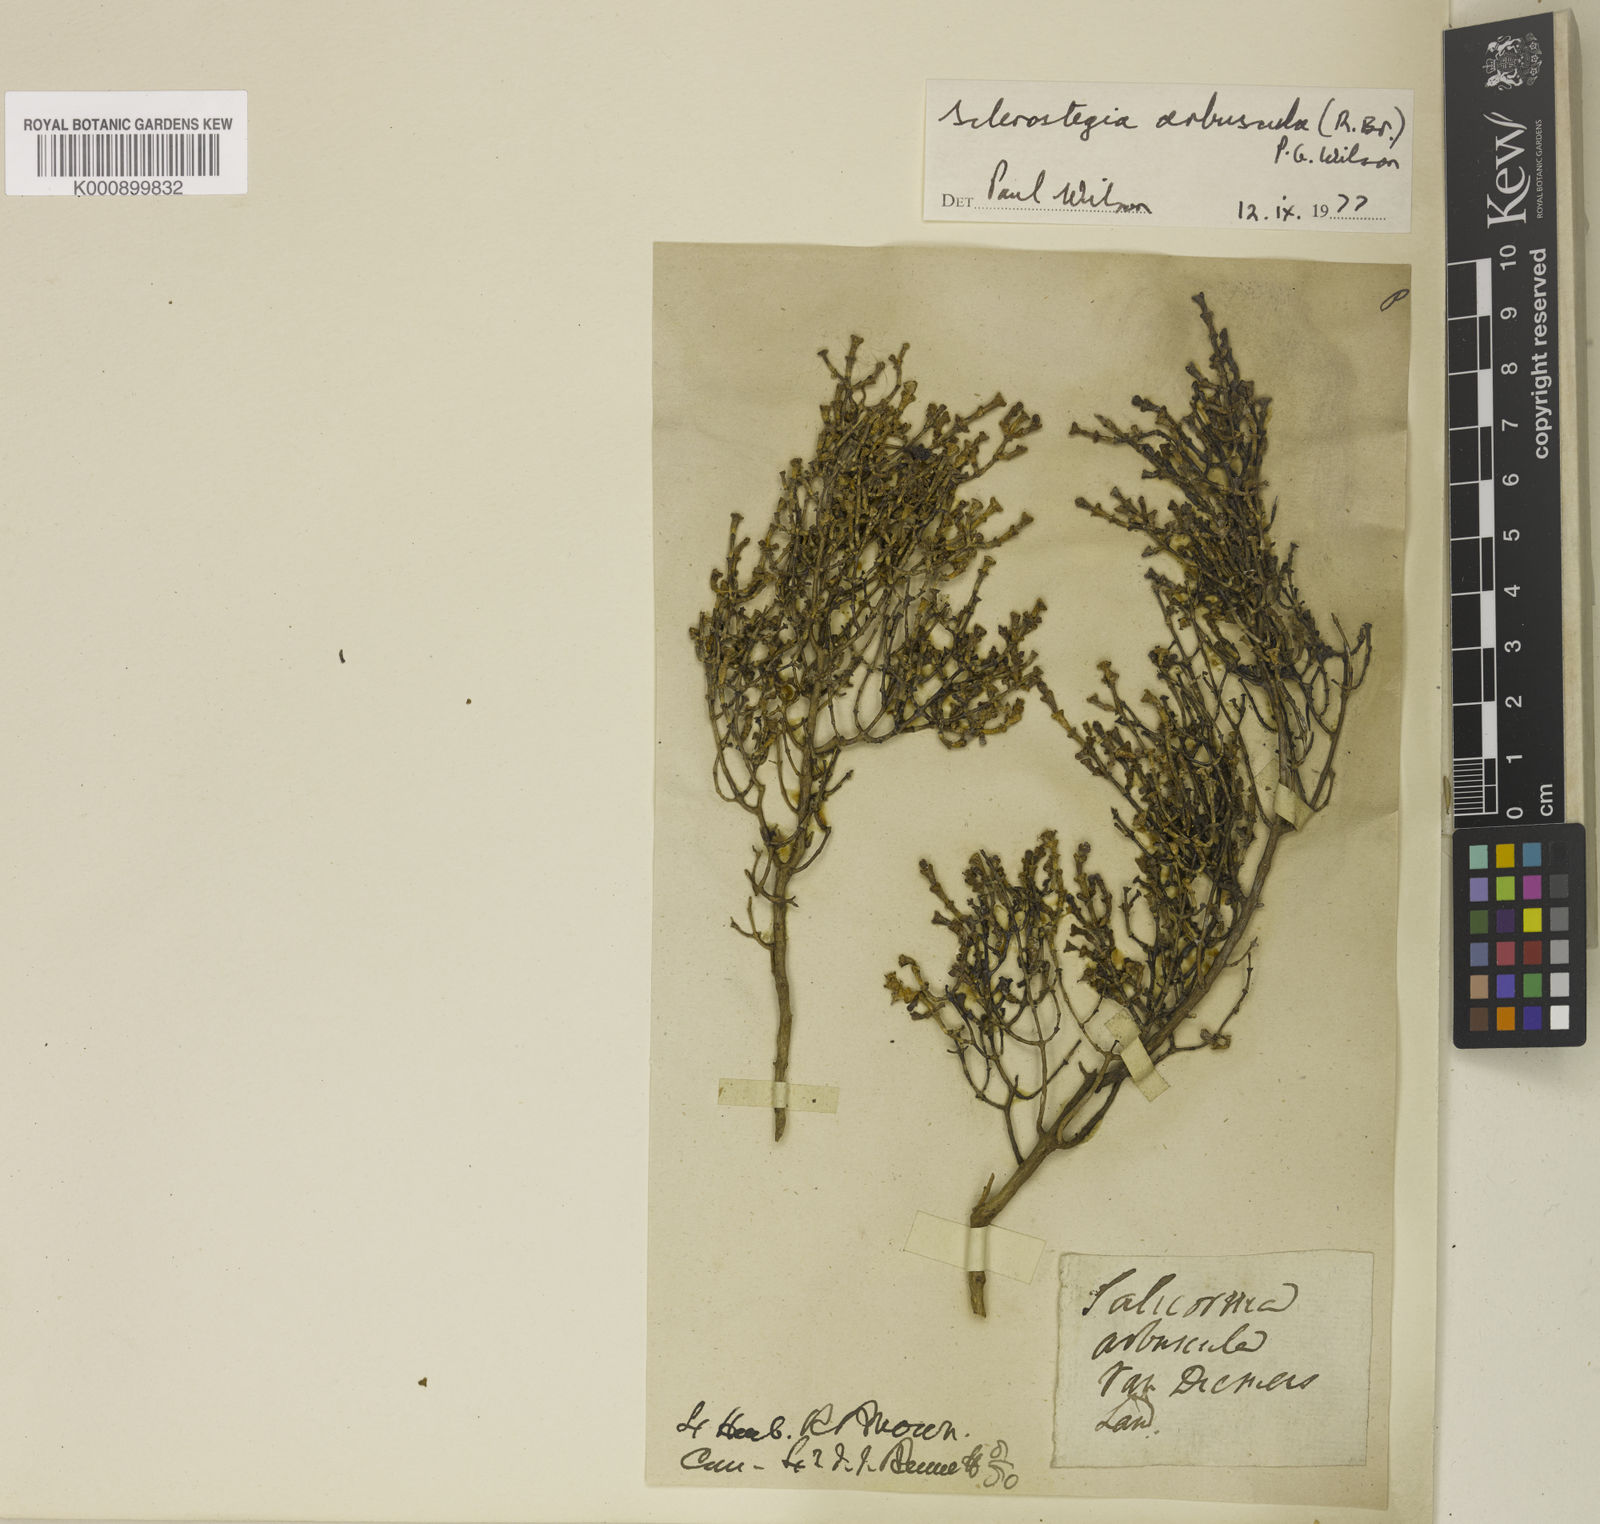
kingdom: Plantae
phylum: Tracheophyta
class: Magnoliopsida
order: Caryophyllales
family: Amaranthaceae
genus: Tecticornia
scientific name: Tecticornia arbuscula
